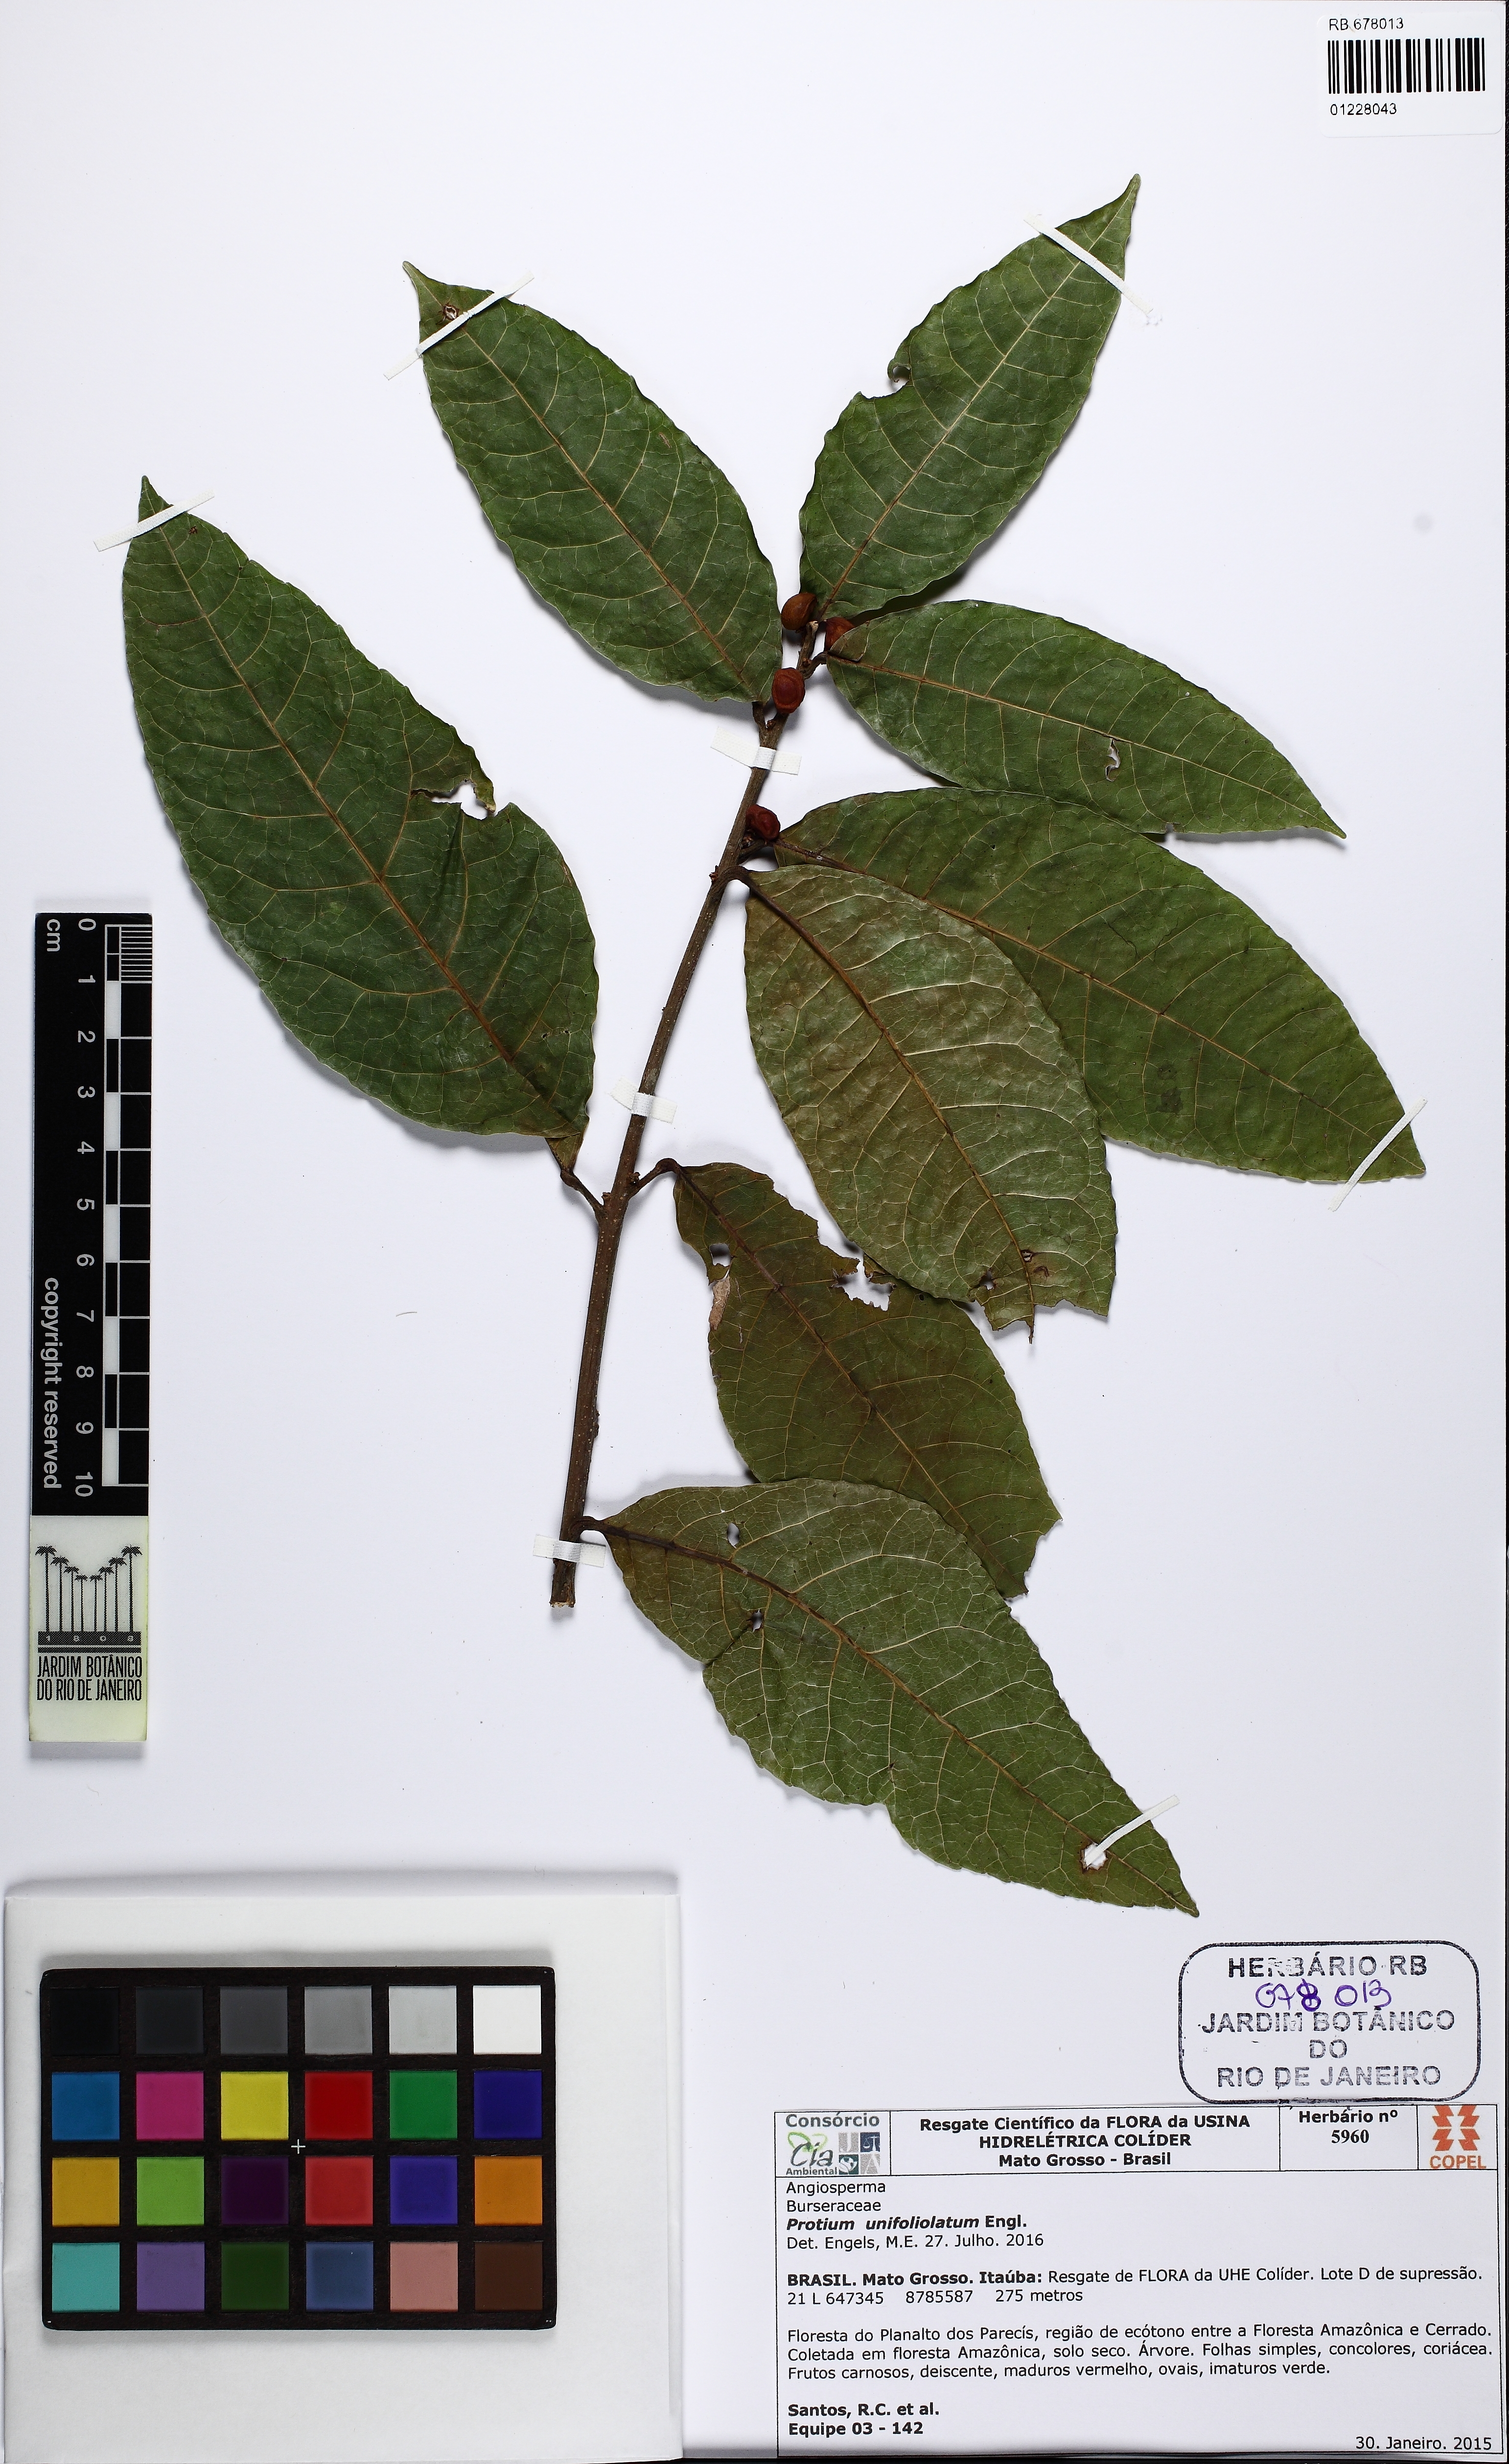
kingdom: Plantae
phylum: Tracheophyta
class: Magnoliopsida
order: Sapindales
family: Burseraceae
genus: Protium
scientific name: Protium unifoliolatum
